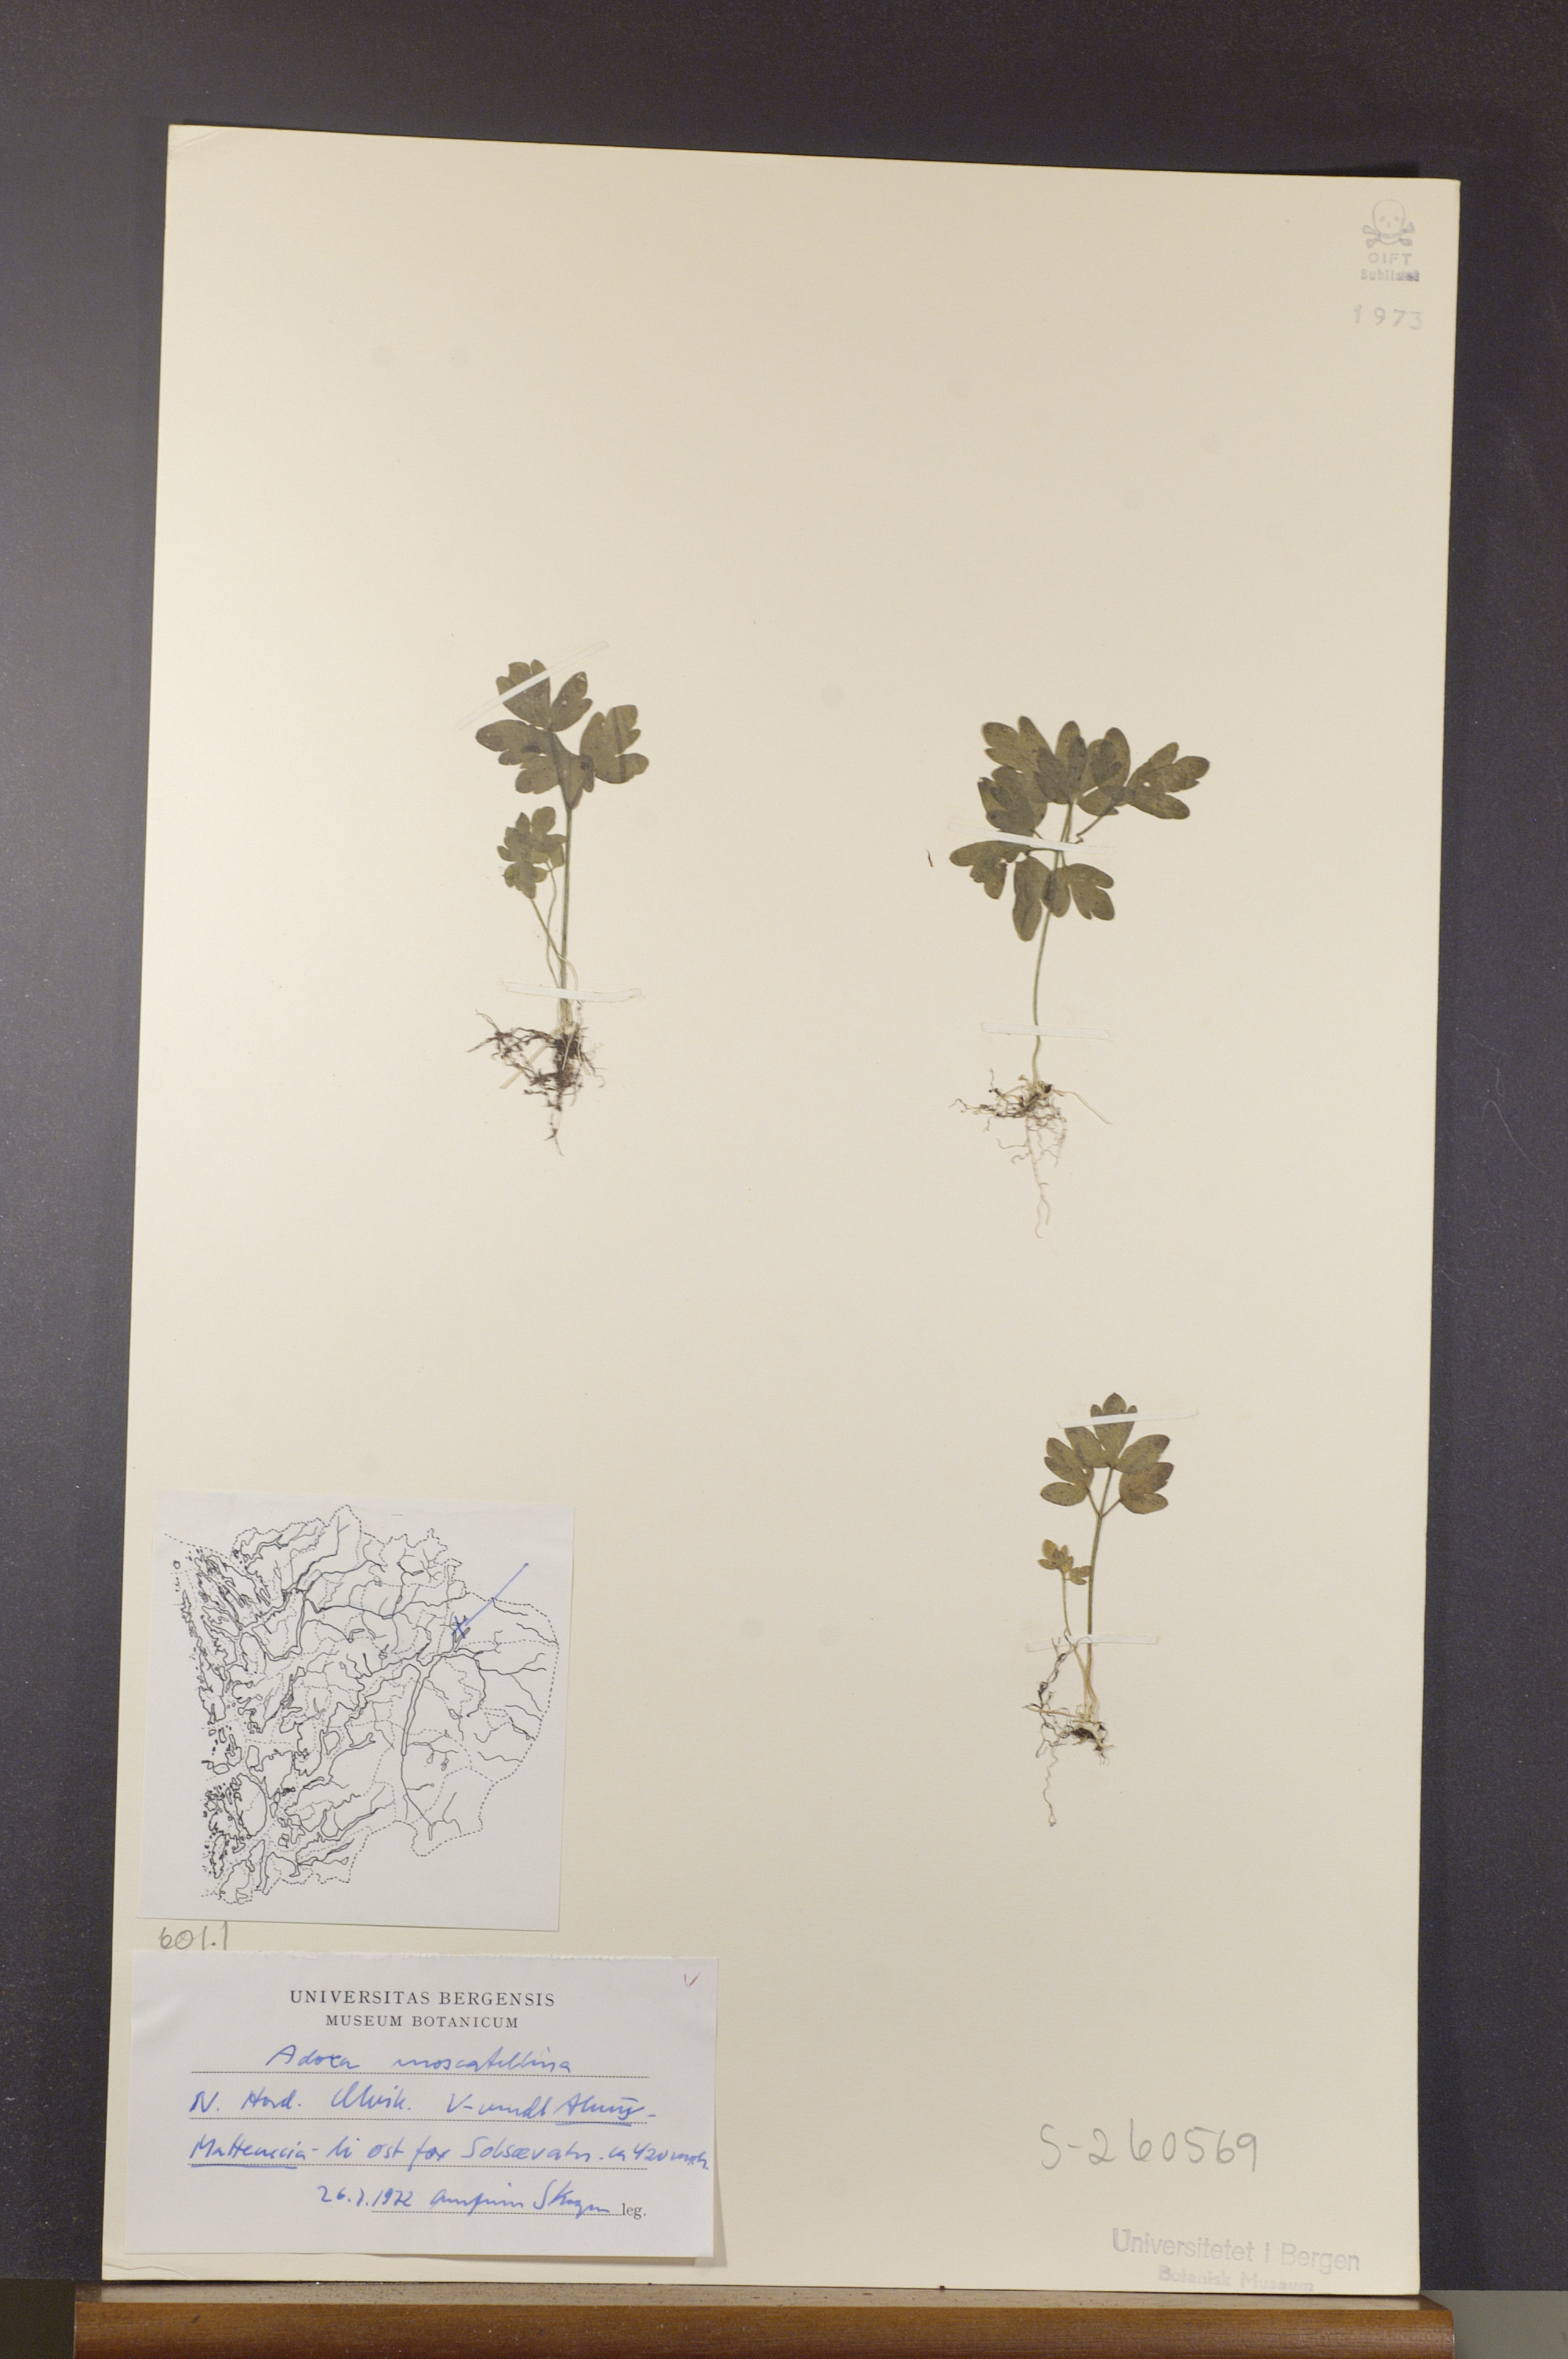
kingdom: Plantae
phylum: Tracheophyta
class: Magnoliopsida
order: Dipsacales
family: Viburnaceae
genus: Adoxa
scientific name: Adoxa moschatellina
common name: Moschatel
